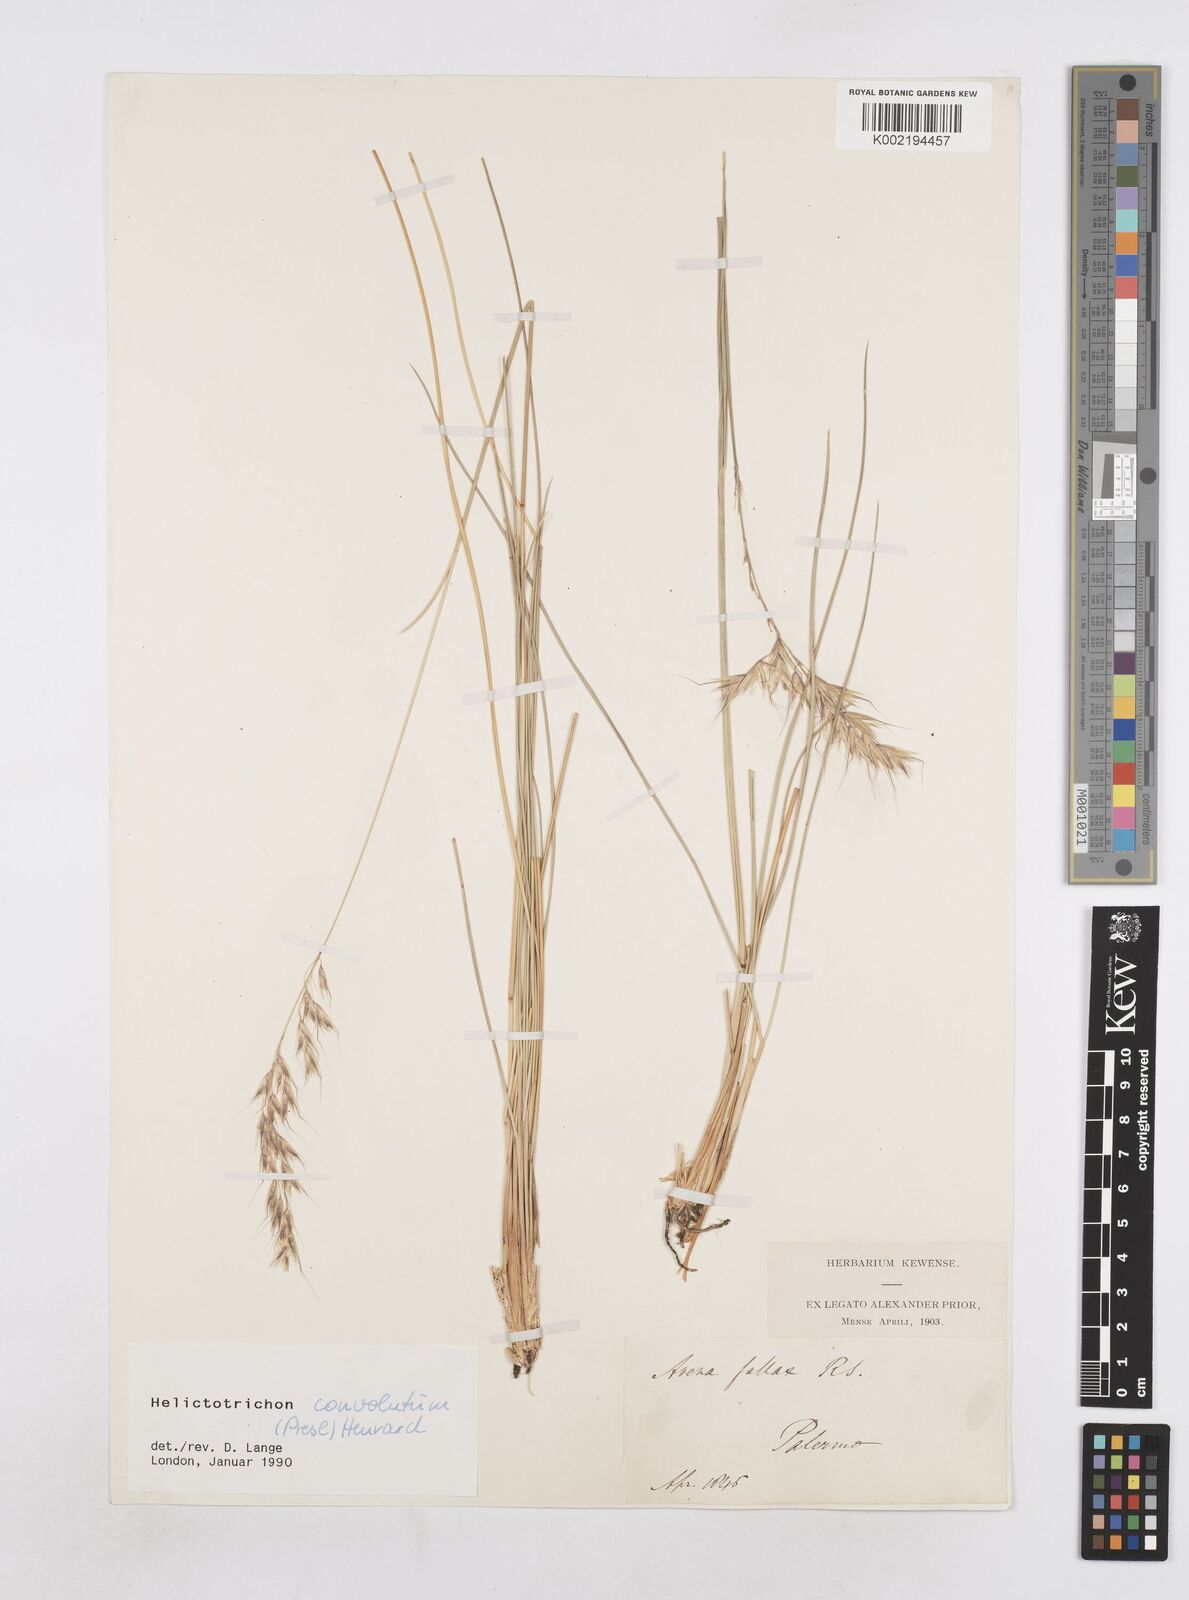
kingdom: Plantae
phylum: Tracheophyta
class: Liliopsida
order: Poales
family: Poaceae
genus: Helictotrichon
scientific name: Helictotrichon convolutum
